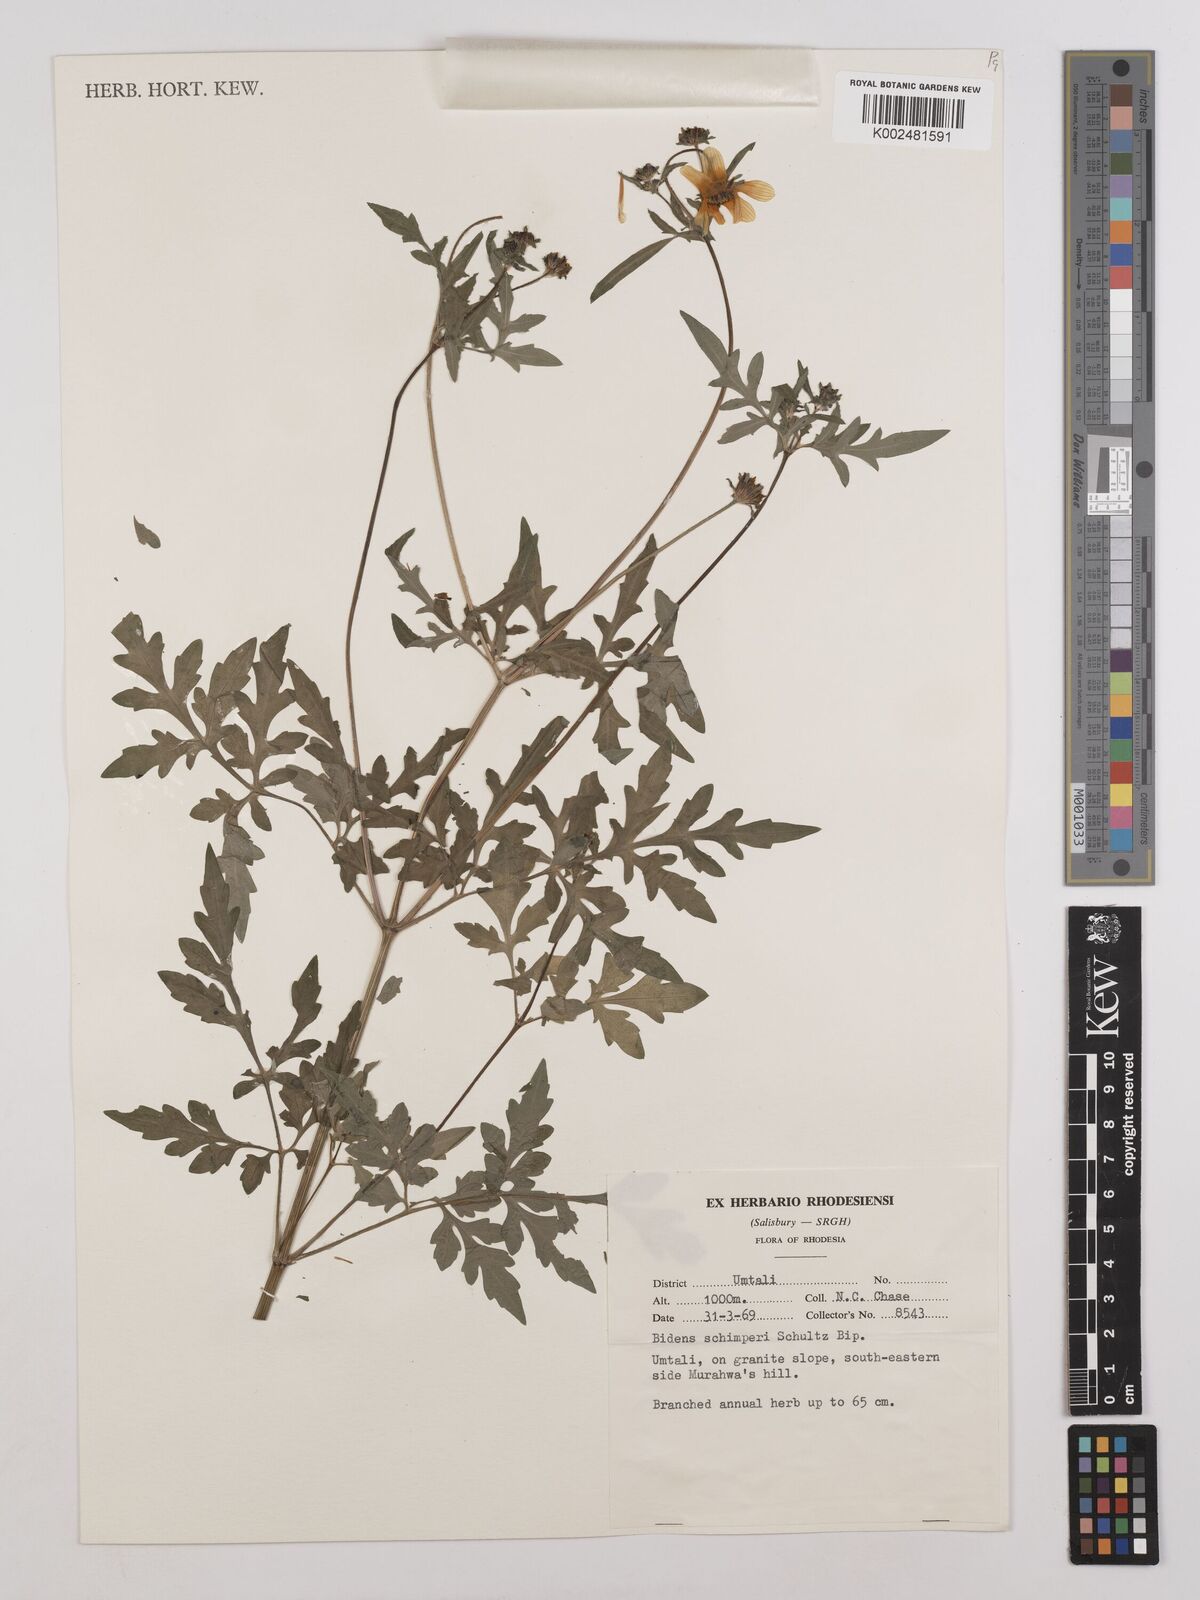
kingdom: Plantae
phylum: Tracheophyta
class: Magnoliopsida
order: Asterales
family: Asteraceae
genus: Bidens
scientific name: Bidens schimperi
